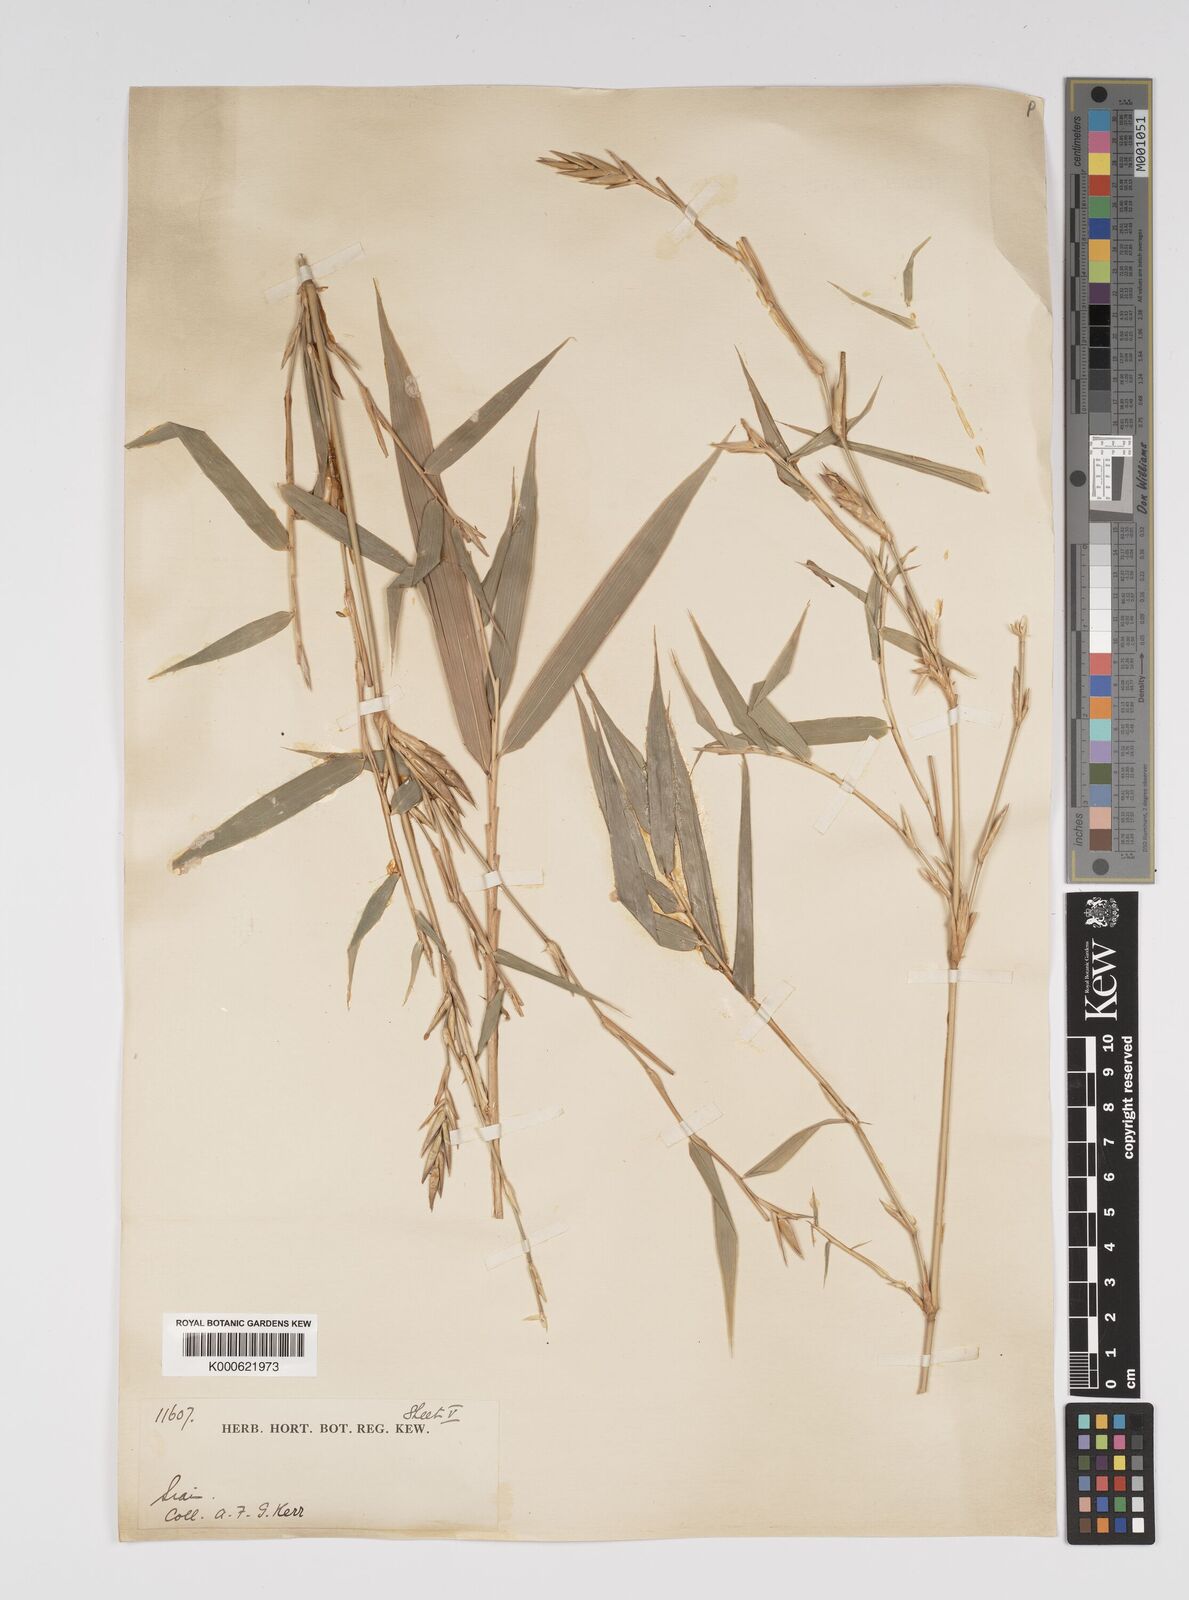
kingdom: Plantae
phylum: Tracheophyta
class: Liliopsida
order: Poales
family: Poaceae
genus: Bambusa
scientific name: Bambusa
